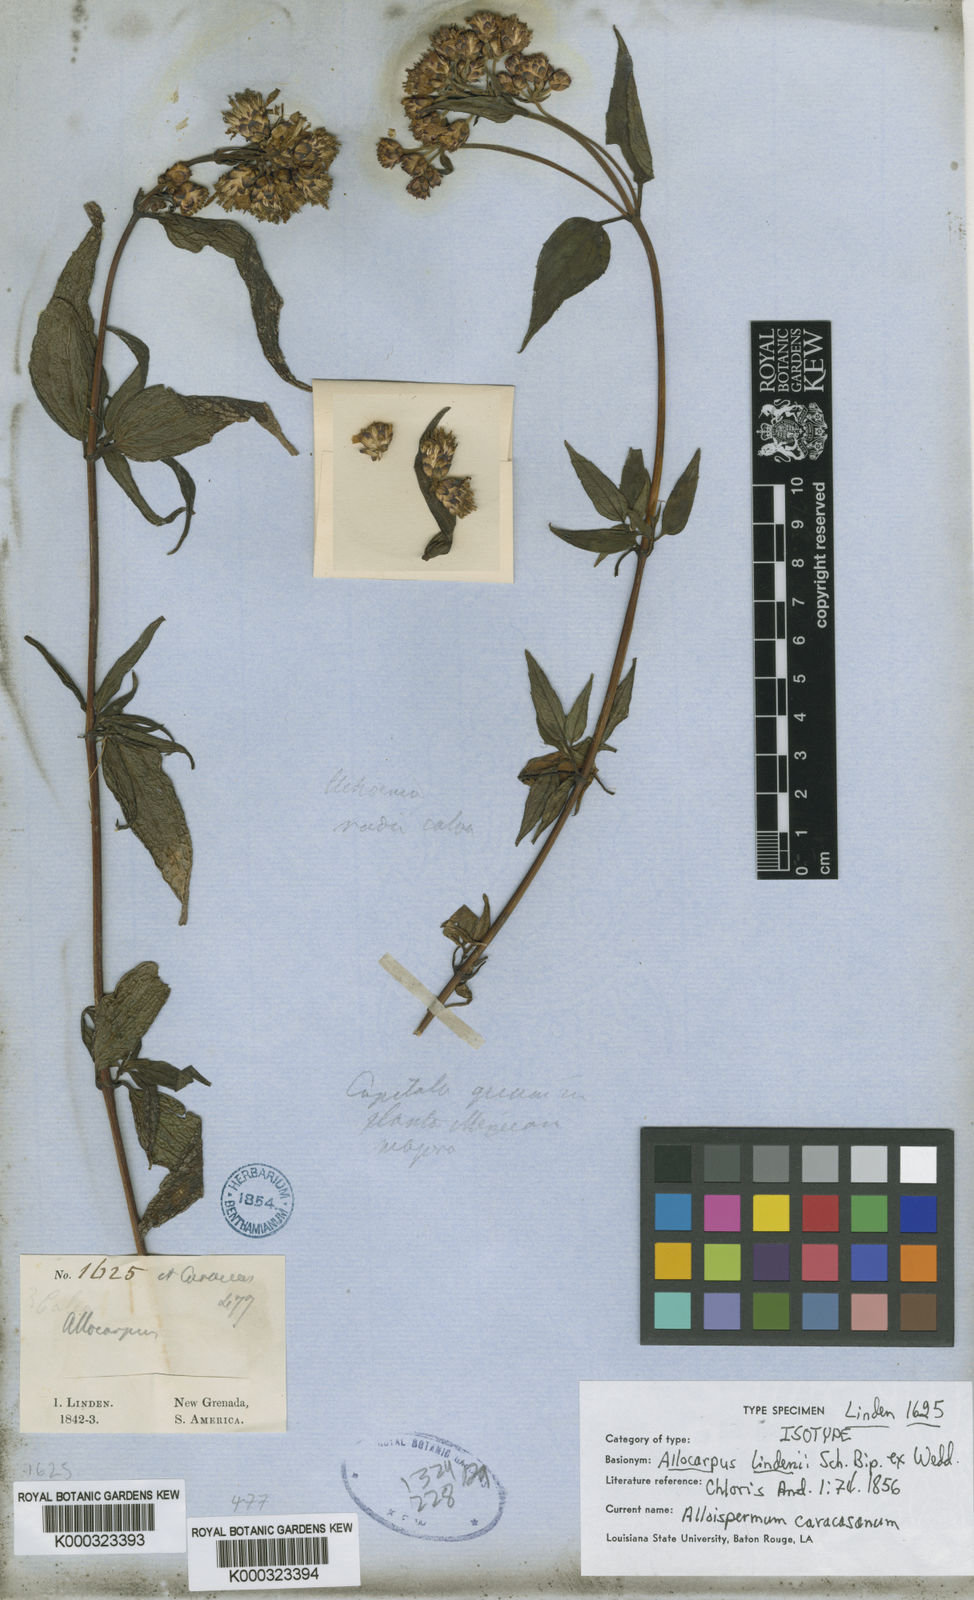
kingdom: Plantae
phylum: Tracheophyta
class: Magnoliopsida
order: Asterales
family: Asteraceae
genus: Alloispermum
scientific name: Alloispermum caracasanum
